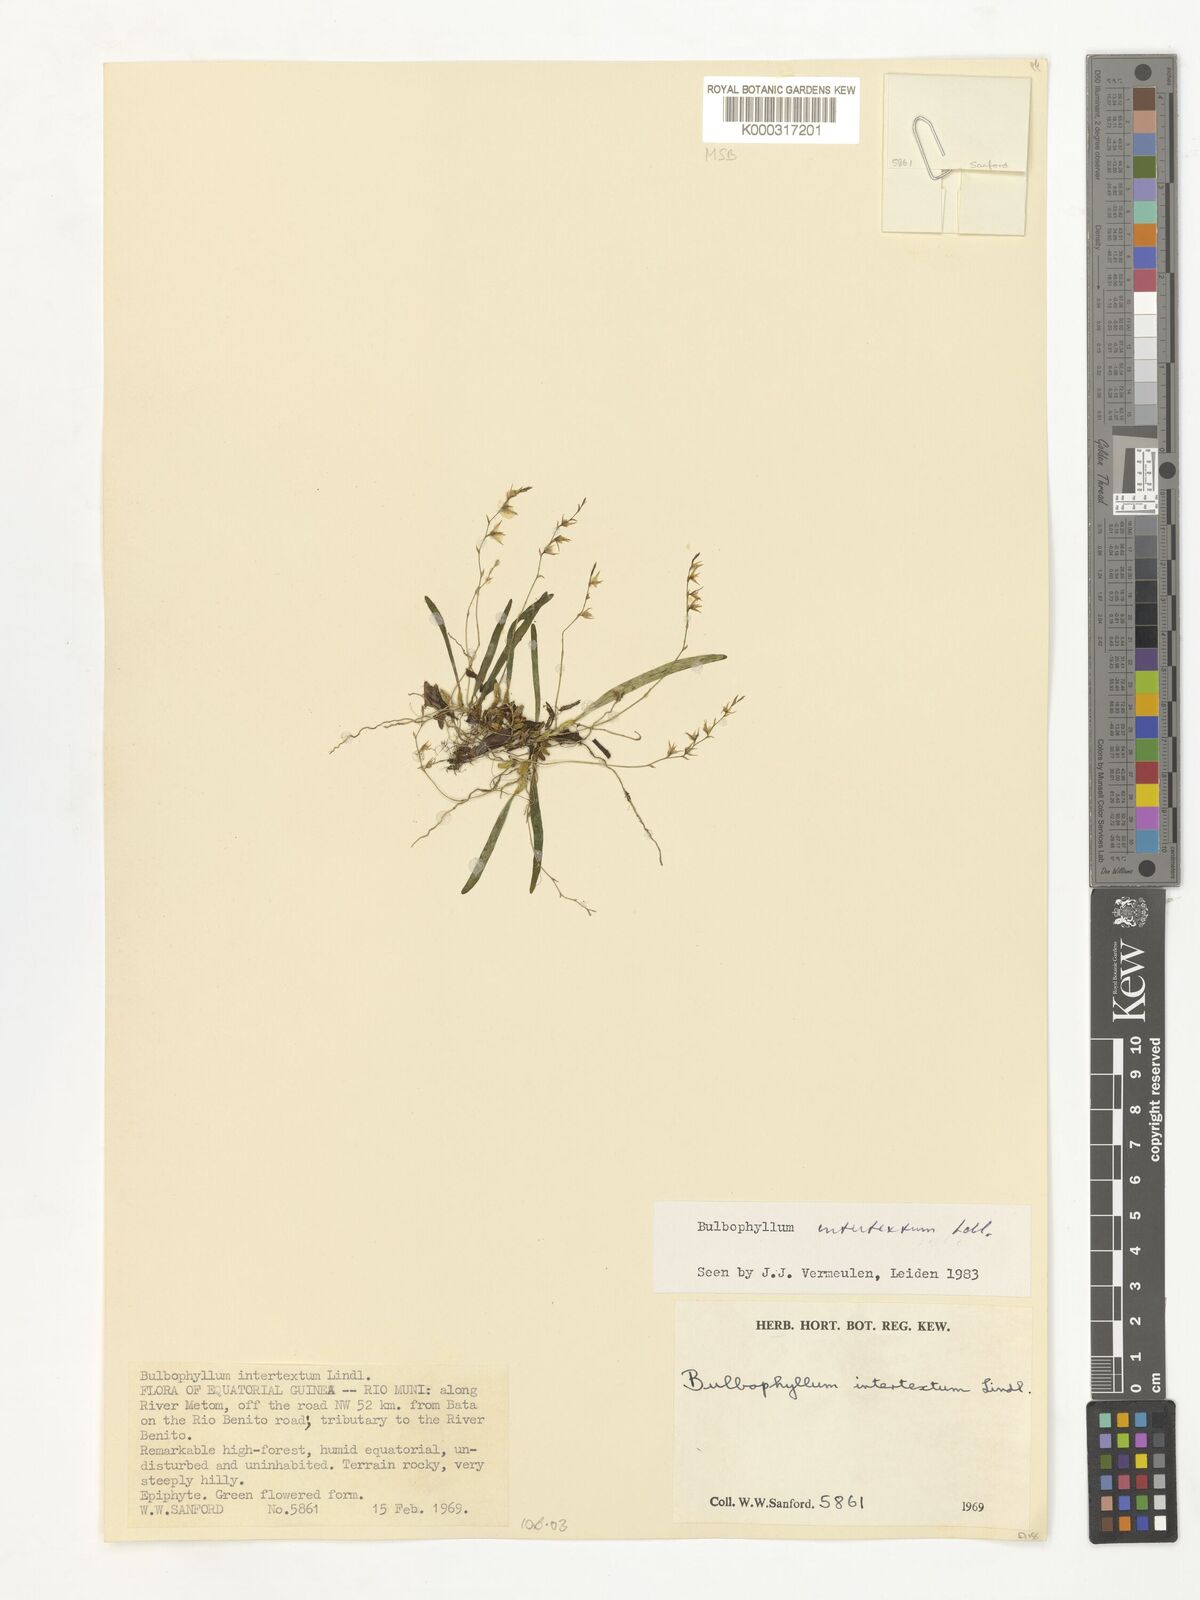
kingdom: Plantae
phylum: Tracheophyta
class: Liliopsida
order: Asparagales
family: Orchidaceae
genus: Bulbophyllum
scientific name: Bulbophyllum intertextum
